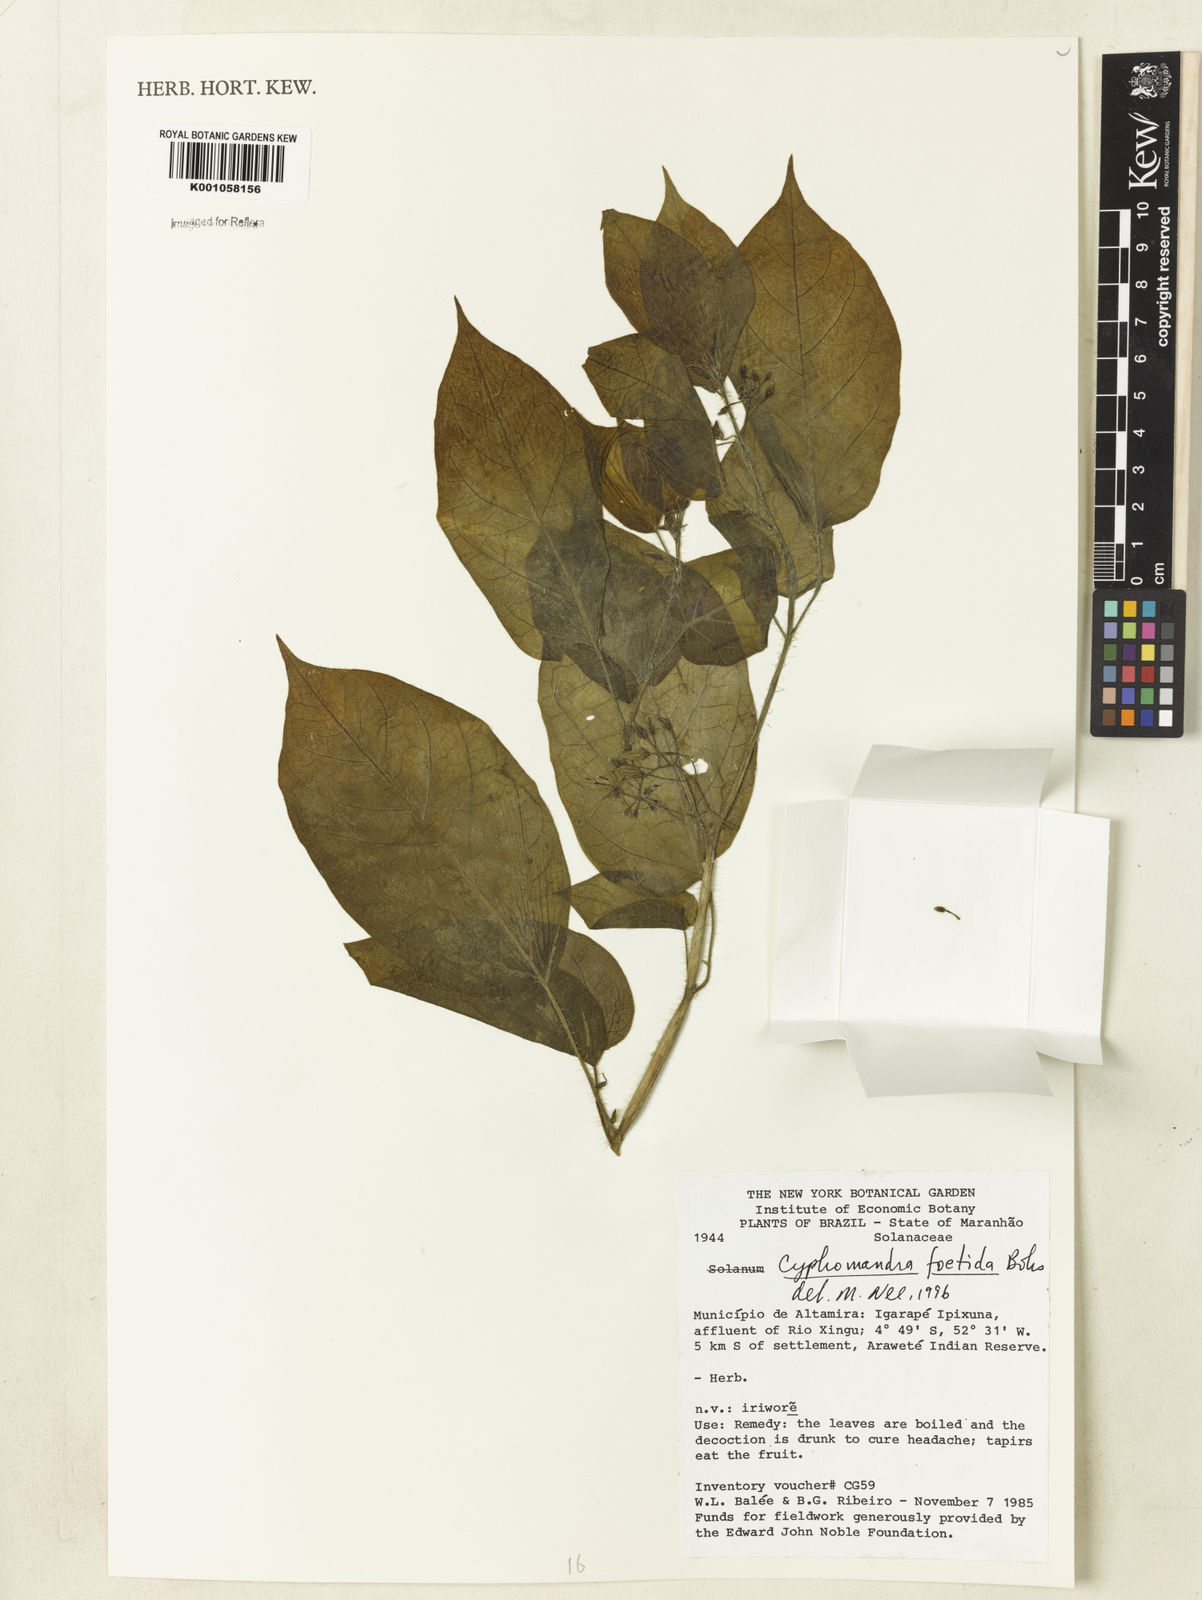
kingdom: Plantae
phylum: Tracheophyta
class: Magnoliopsida
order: Solanales
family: Solanaceae
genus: Solanum
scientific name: Solanum
